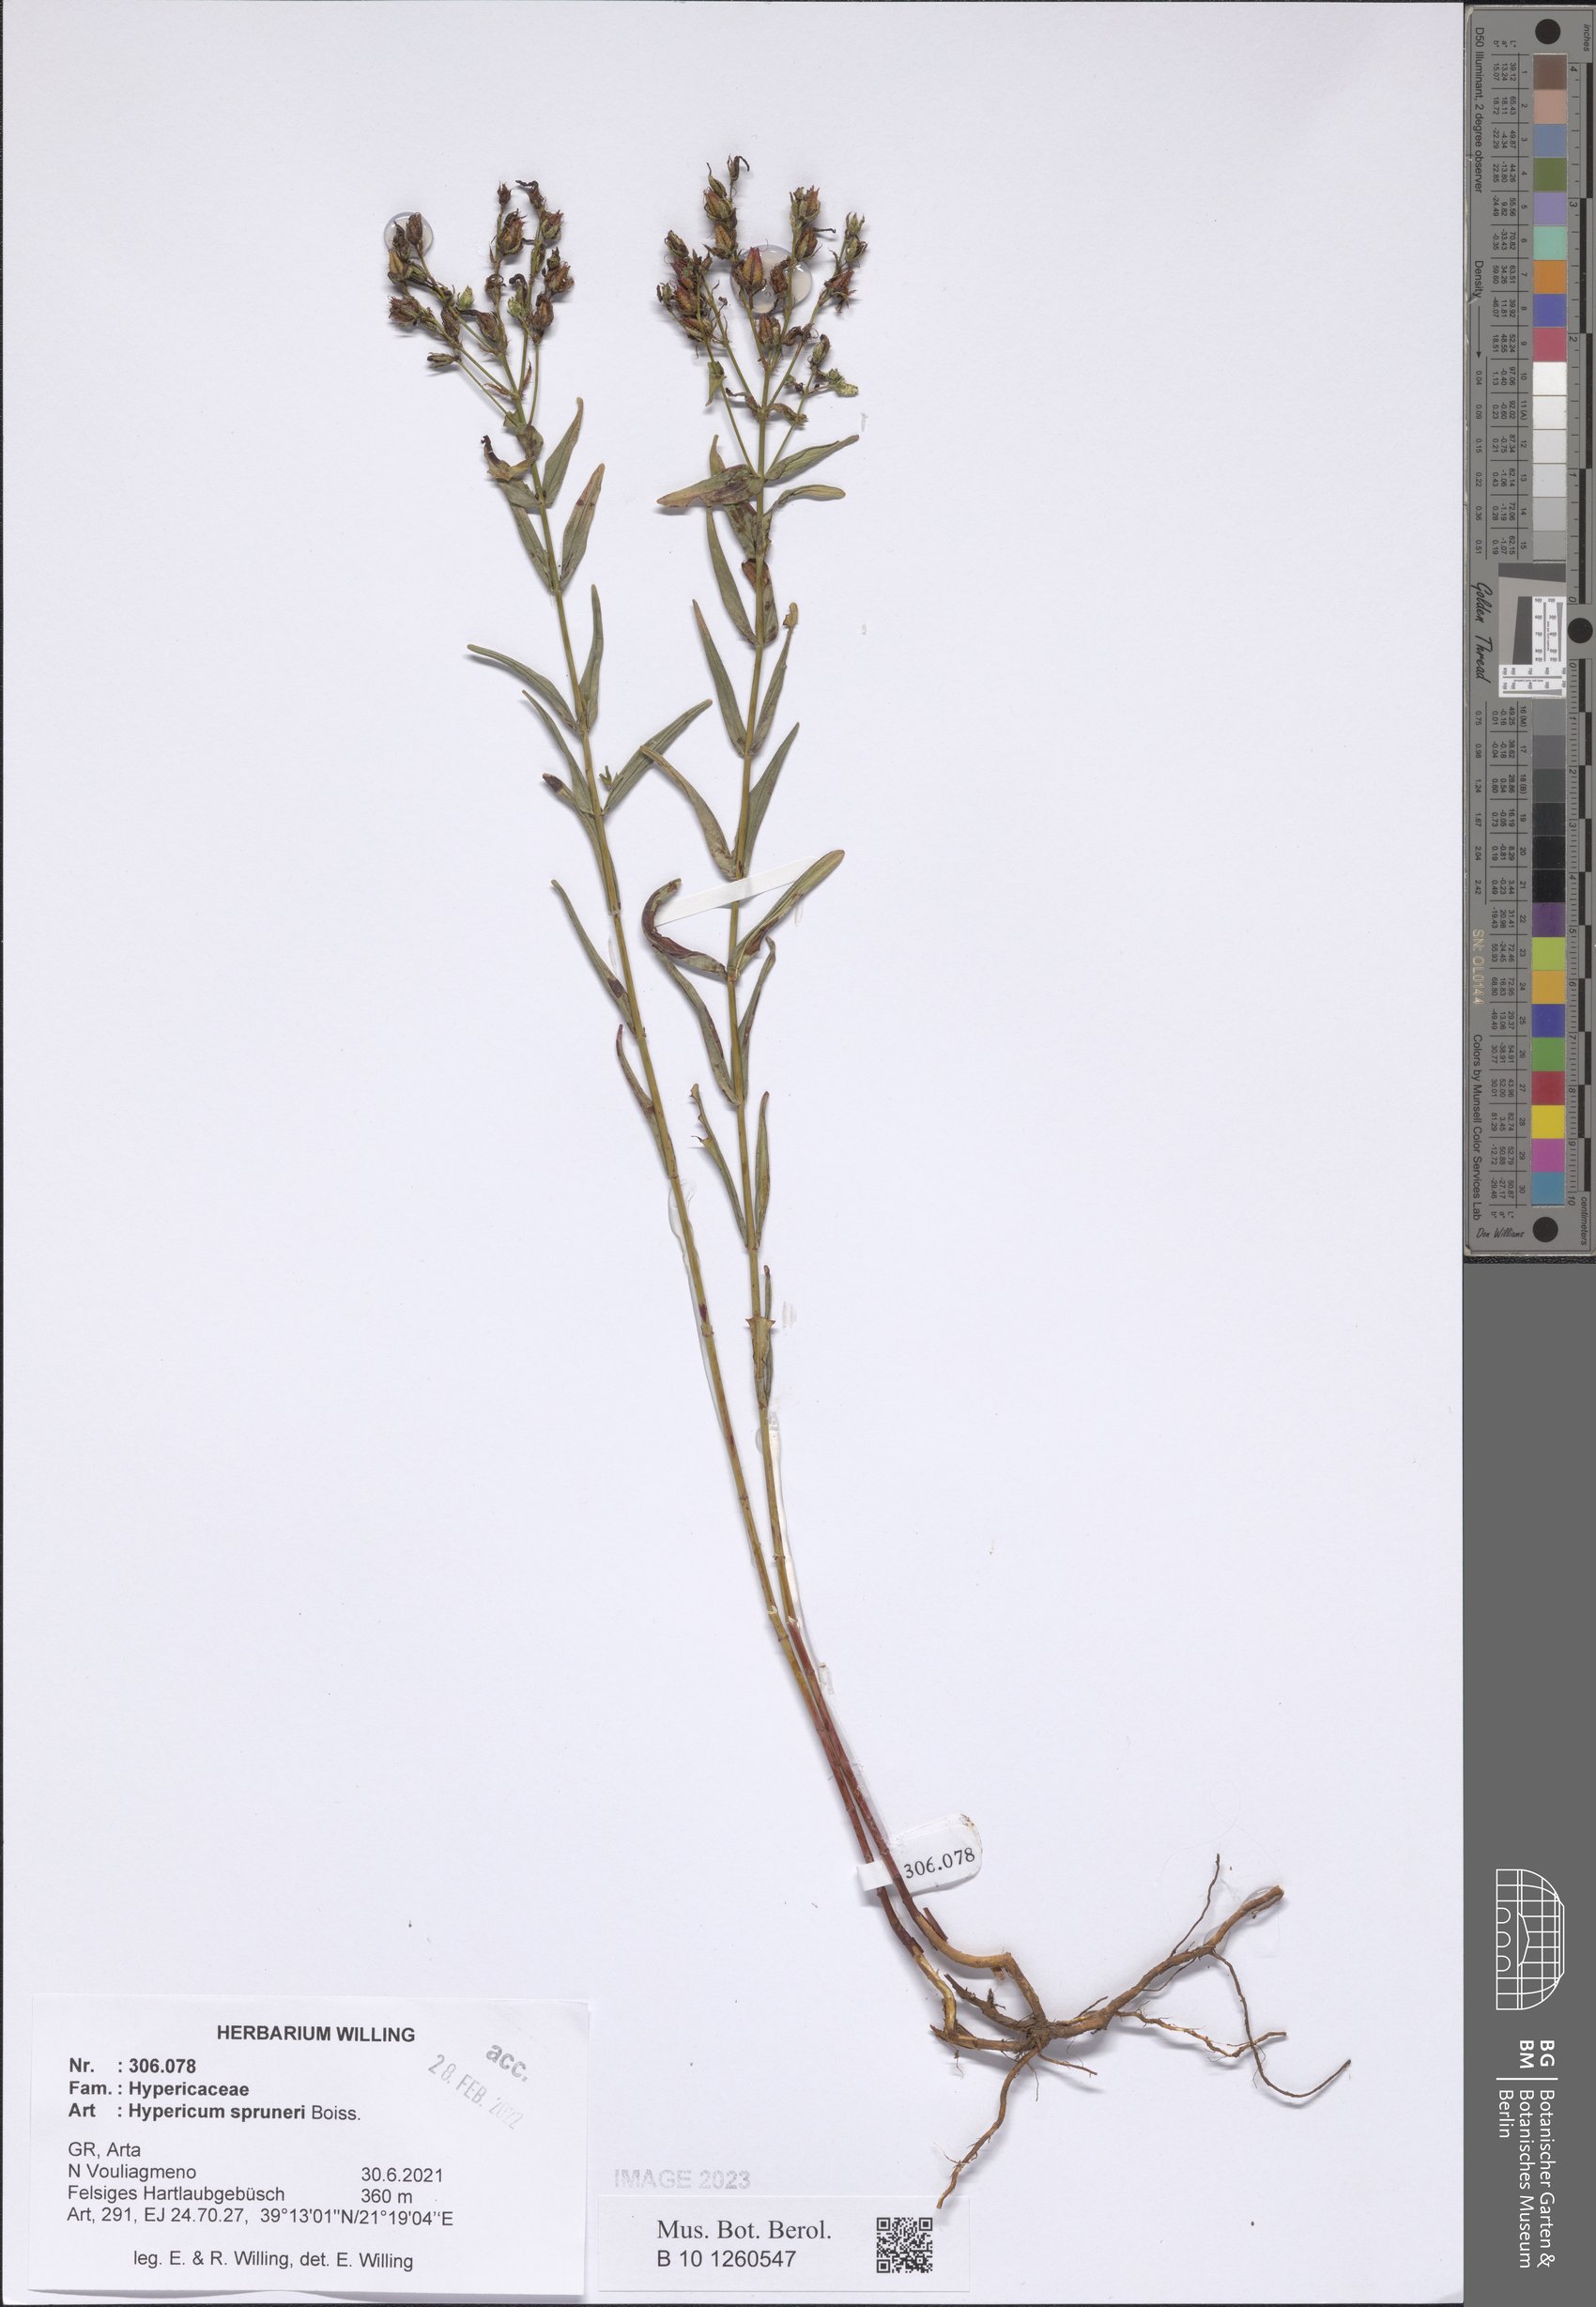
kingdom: Plantae
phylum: Tracheophyta
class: Magnoliopsida
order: Malpighiales
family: Hypericaceae
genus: Hypericum
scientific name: Hypericum spruneri
